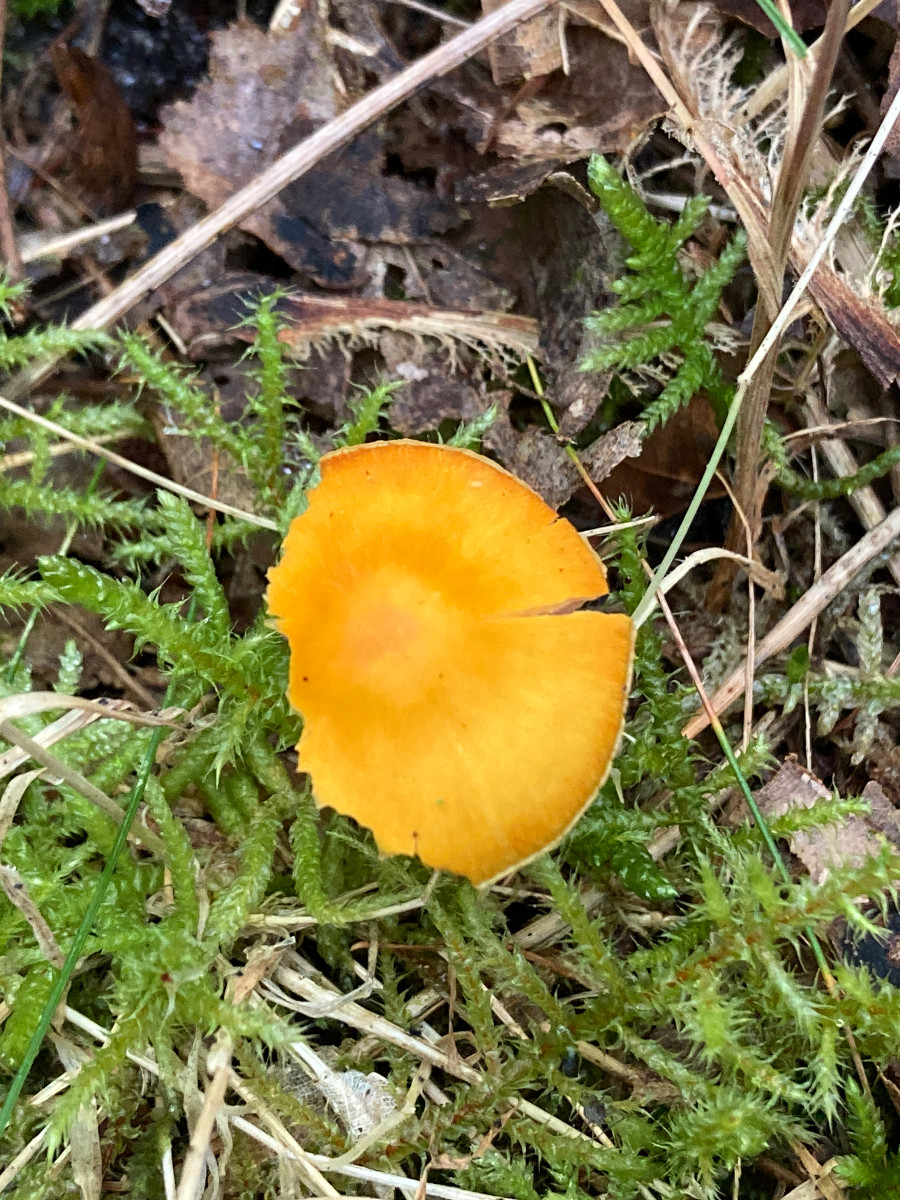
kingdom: Fungi
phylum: Basidiomycota
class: Agaricomycetes
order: Agaricales
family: Hygrophoraceae
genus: Hygrocybe
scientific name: Hygrocybe ceracea
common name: voksgul vokshat
